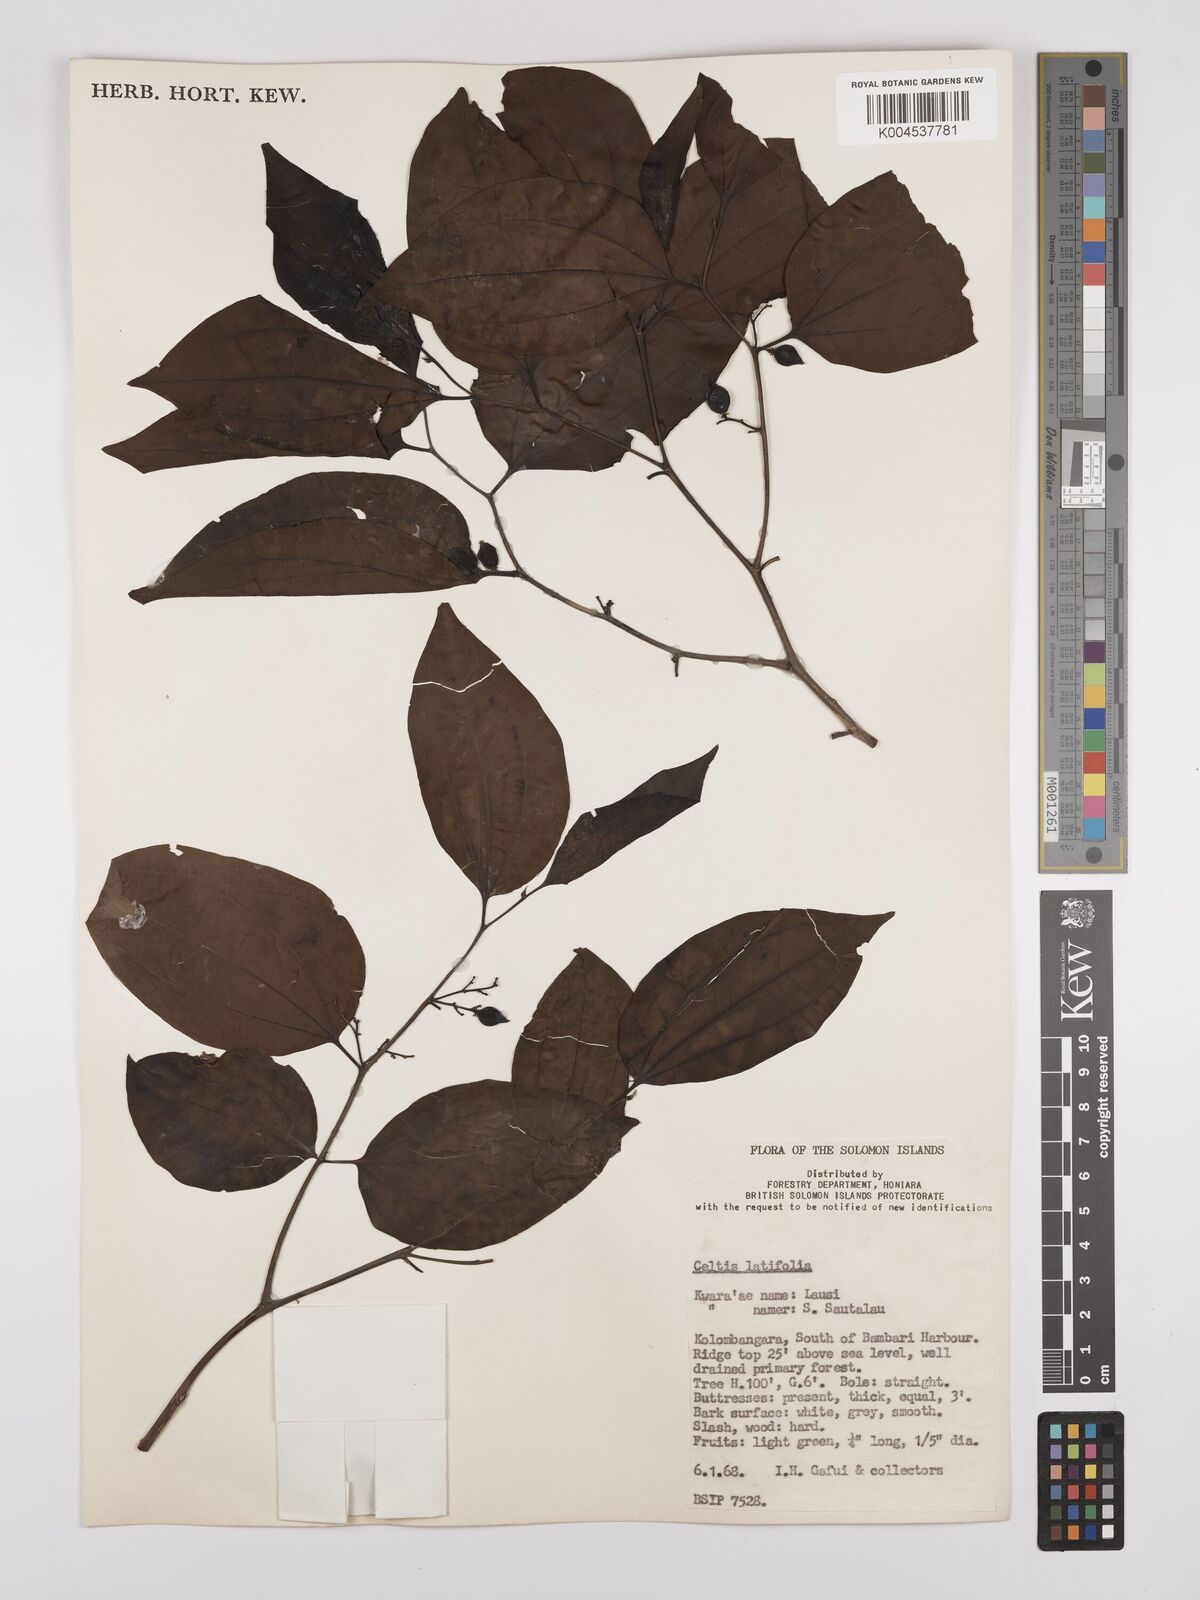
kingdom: Plantae
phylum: Tracheophyta
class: Magnoliopsida
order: Rosales
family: Cannabaceae
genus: Celtis
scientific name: Celtis latifolia
